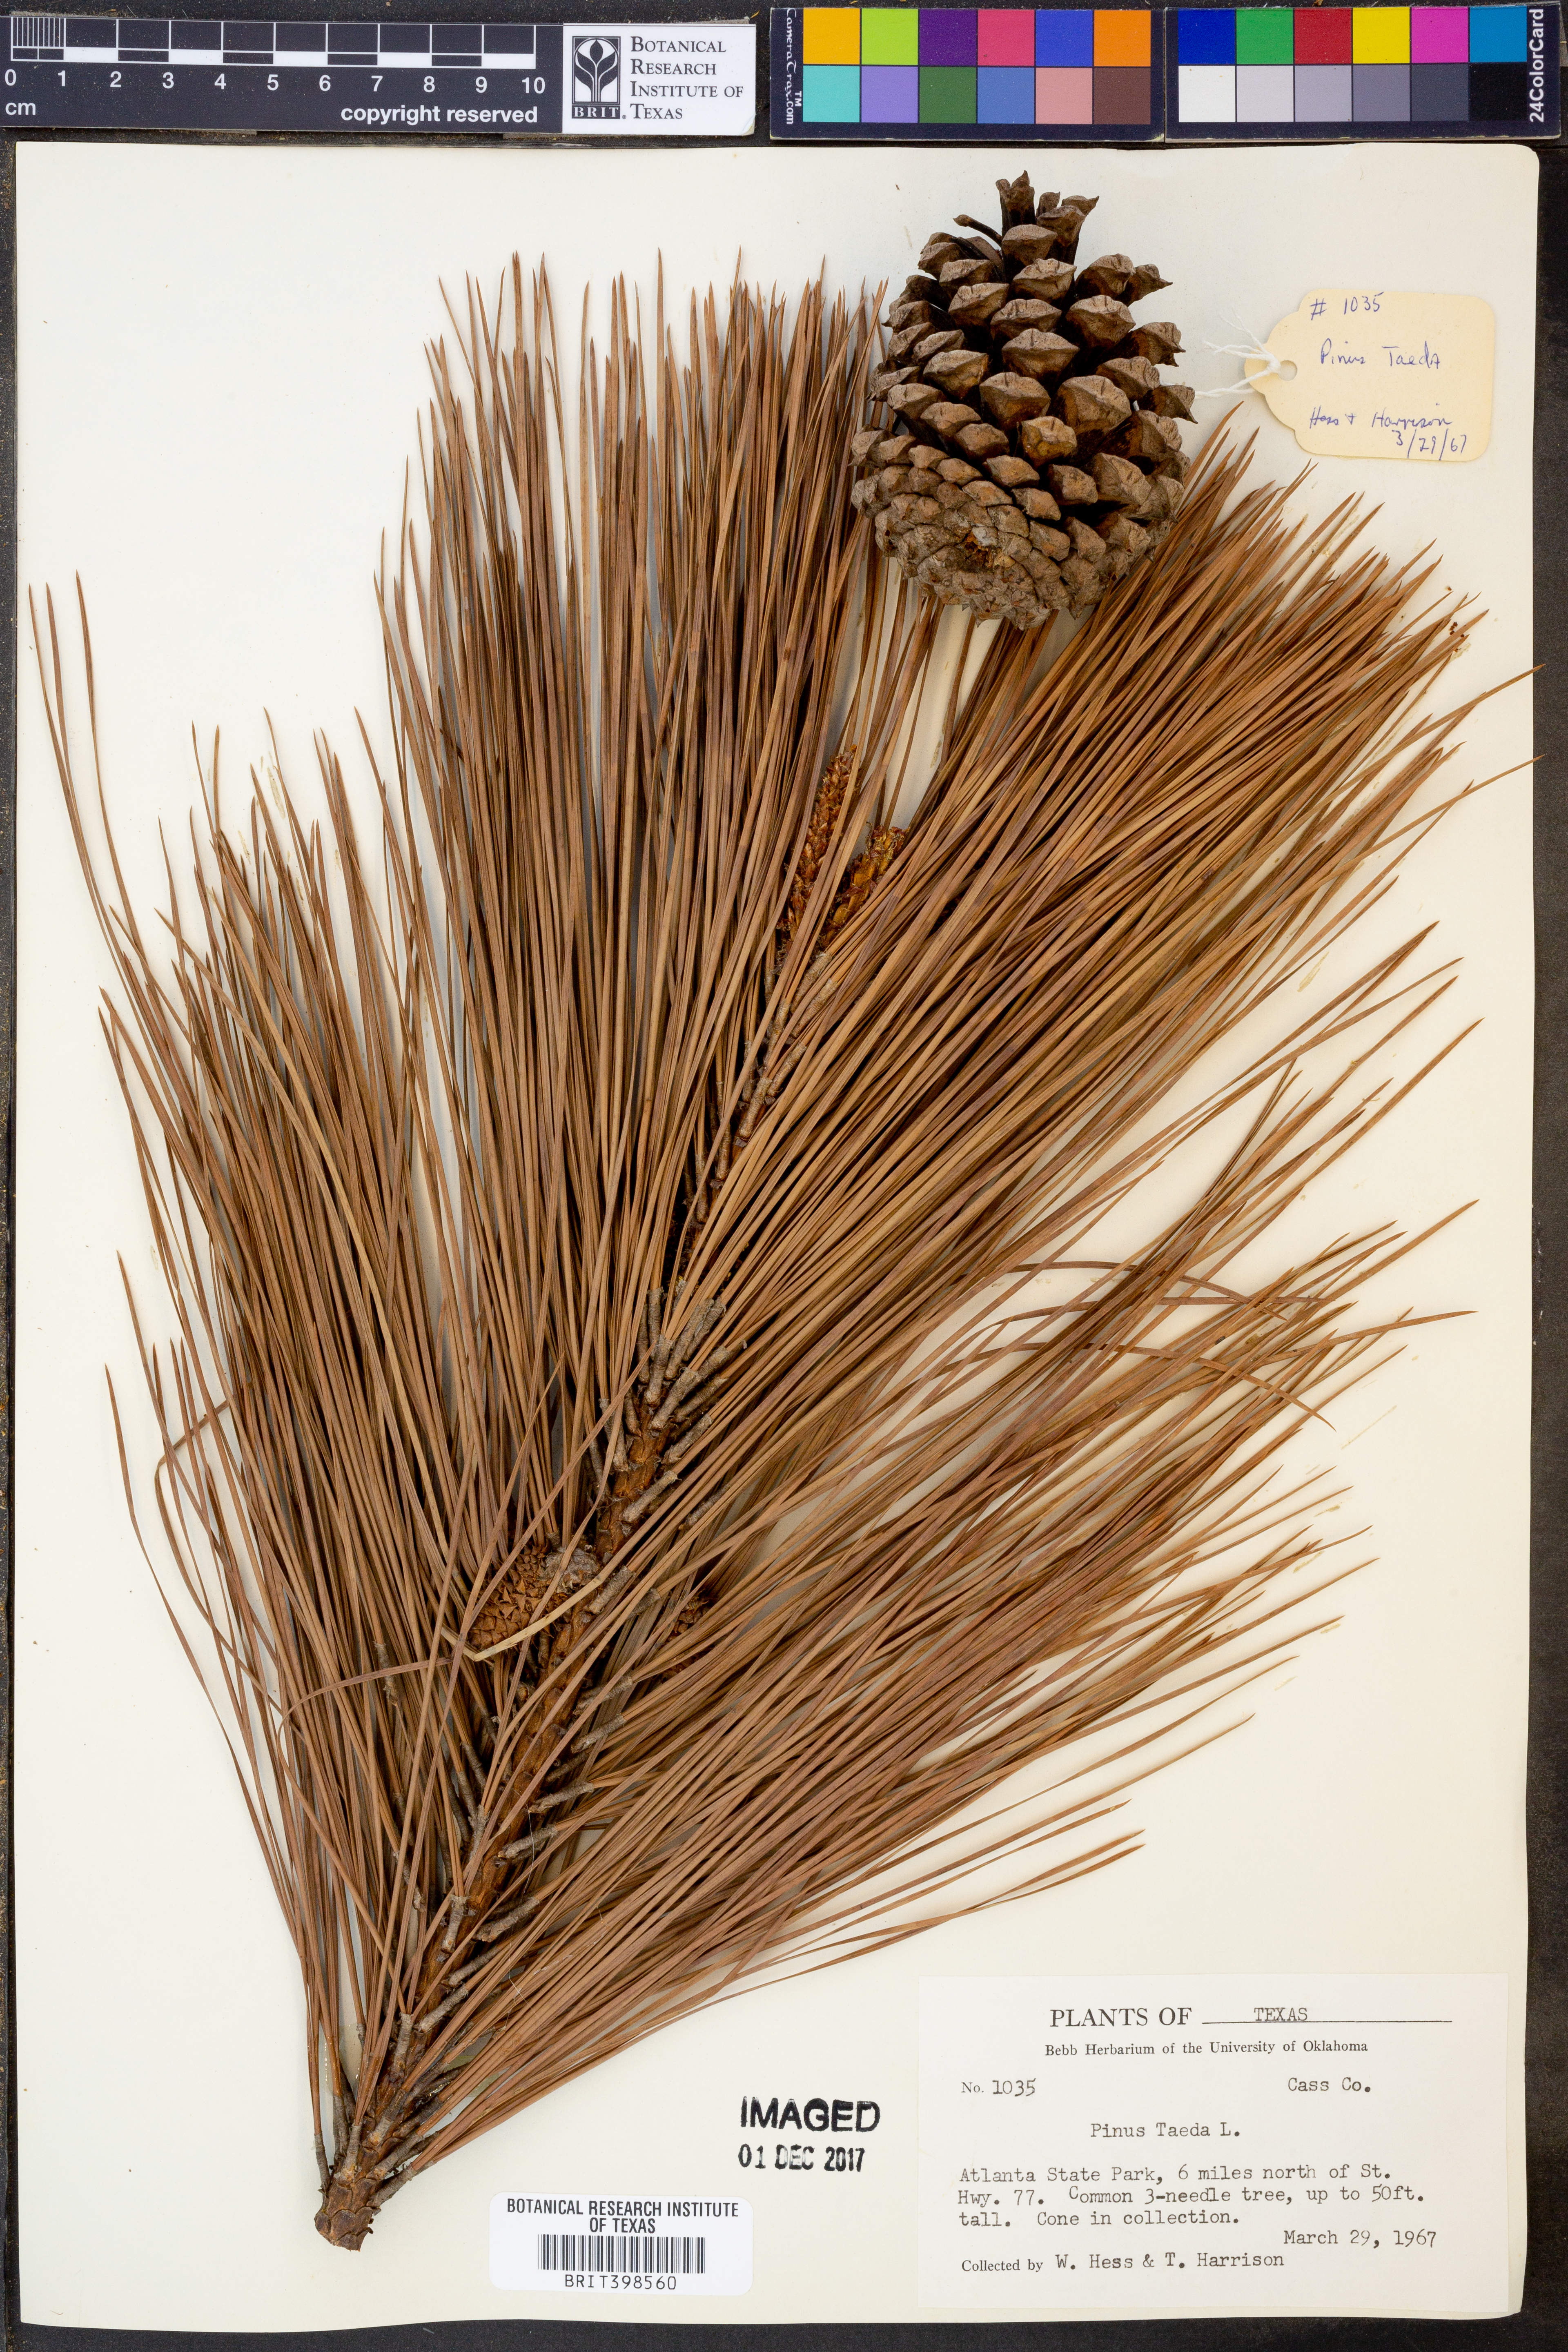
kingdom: Plantae
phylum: Tracheophyta
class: Pinopsida
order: Pinales
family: Pinaceae
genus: Pinus
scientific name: Pinus taeda
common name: Loblolly pine
